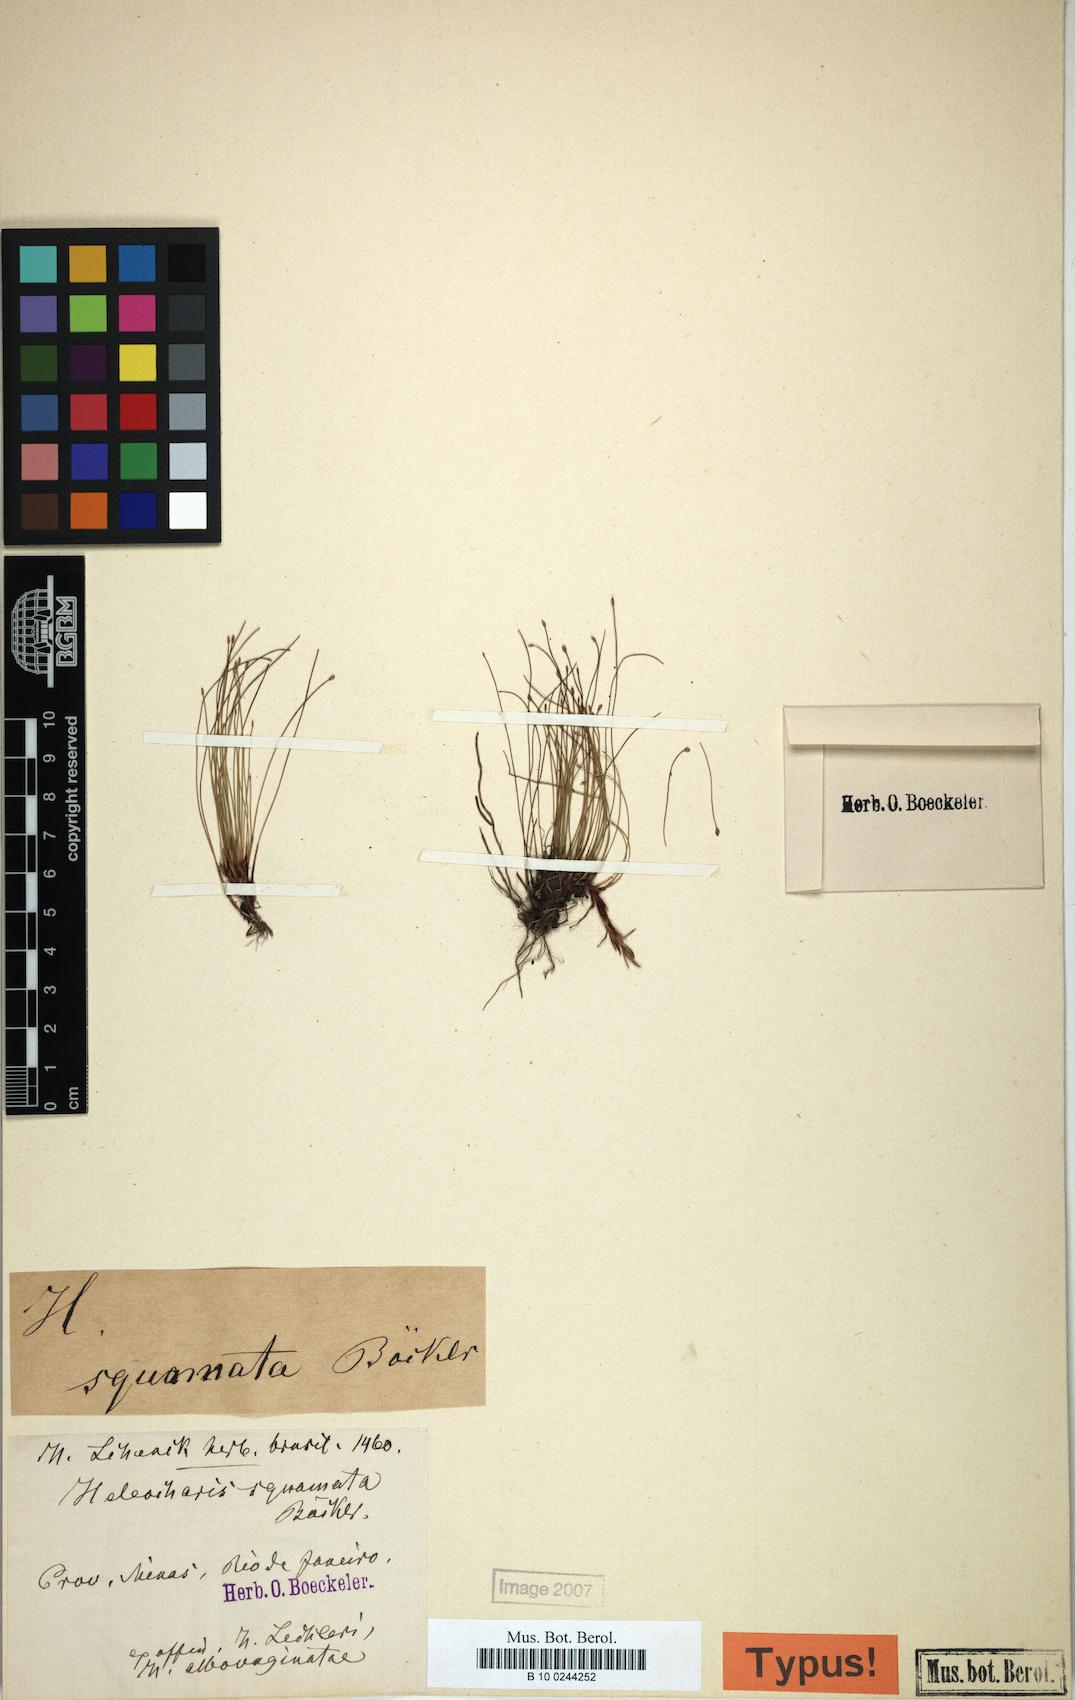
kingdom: Plantae
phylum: Tracheophyta
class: Liliopsida
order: Poales
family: Cyperaceae
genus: Eleocharis
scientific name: Eleocharis squamata
